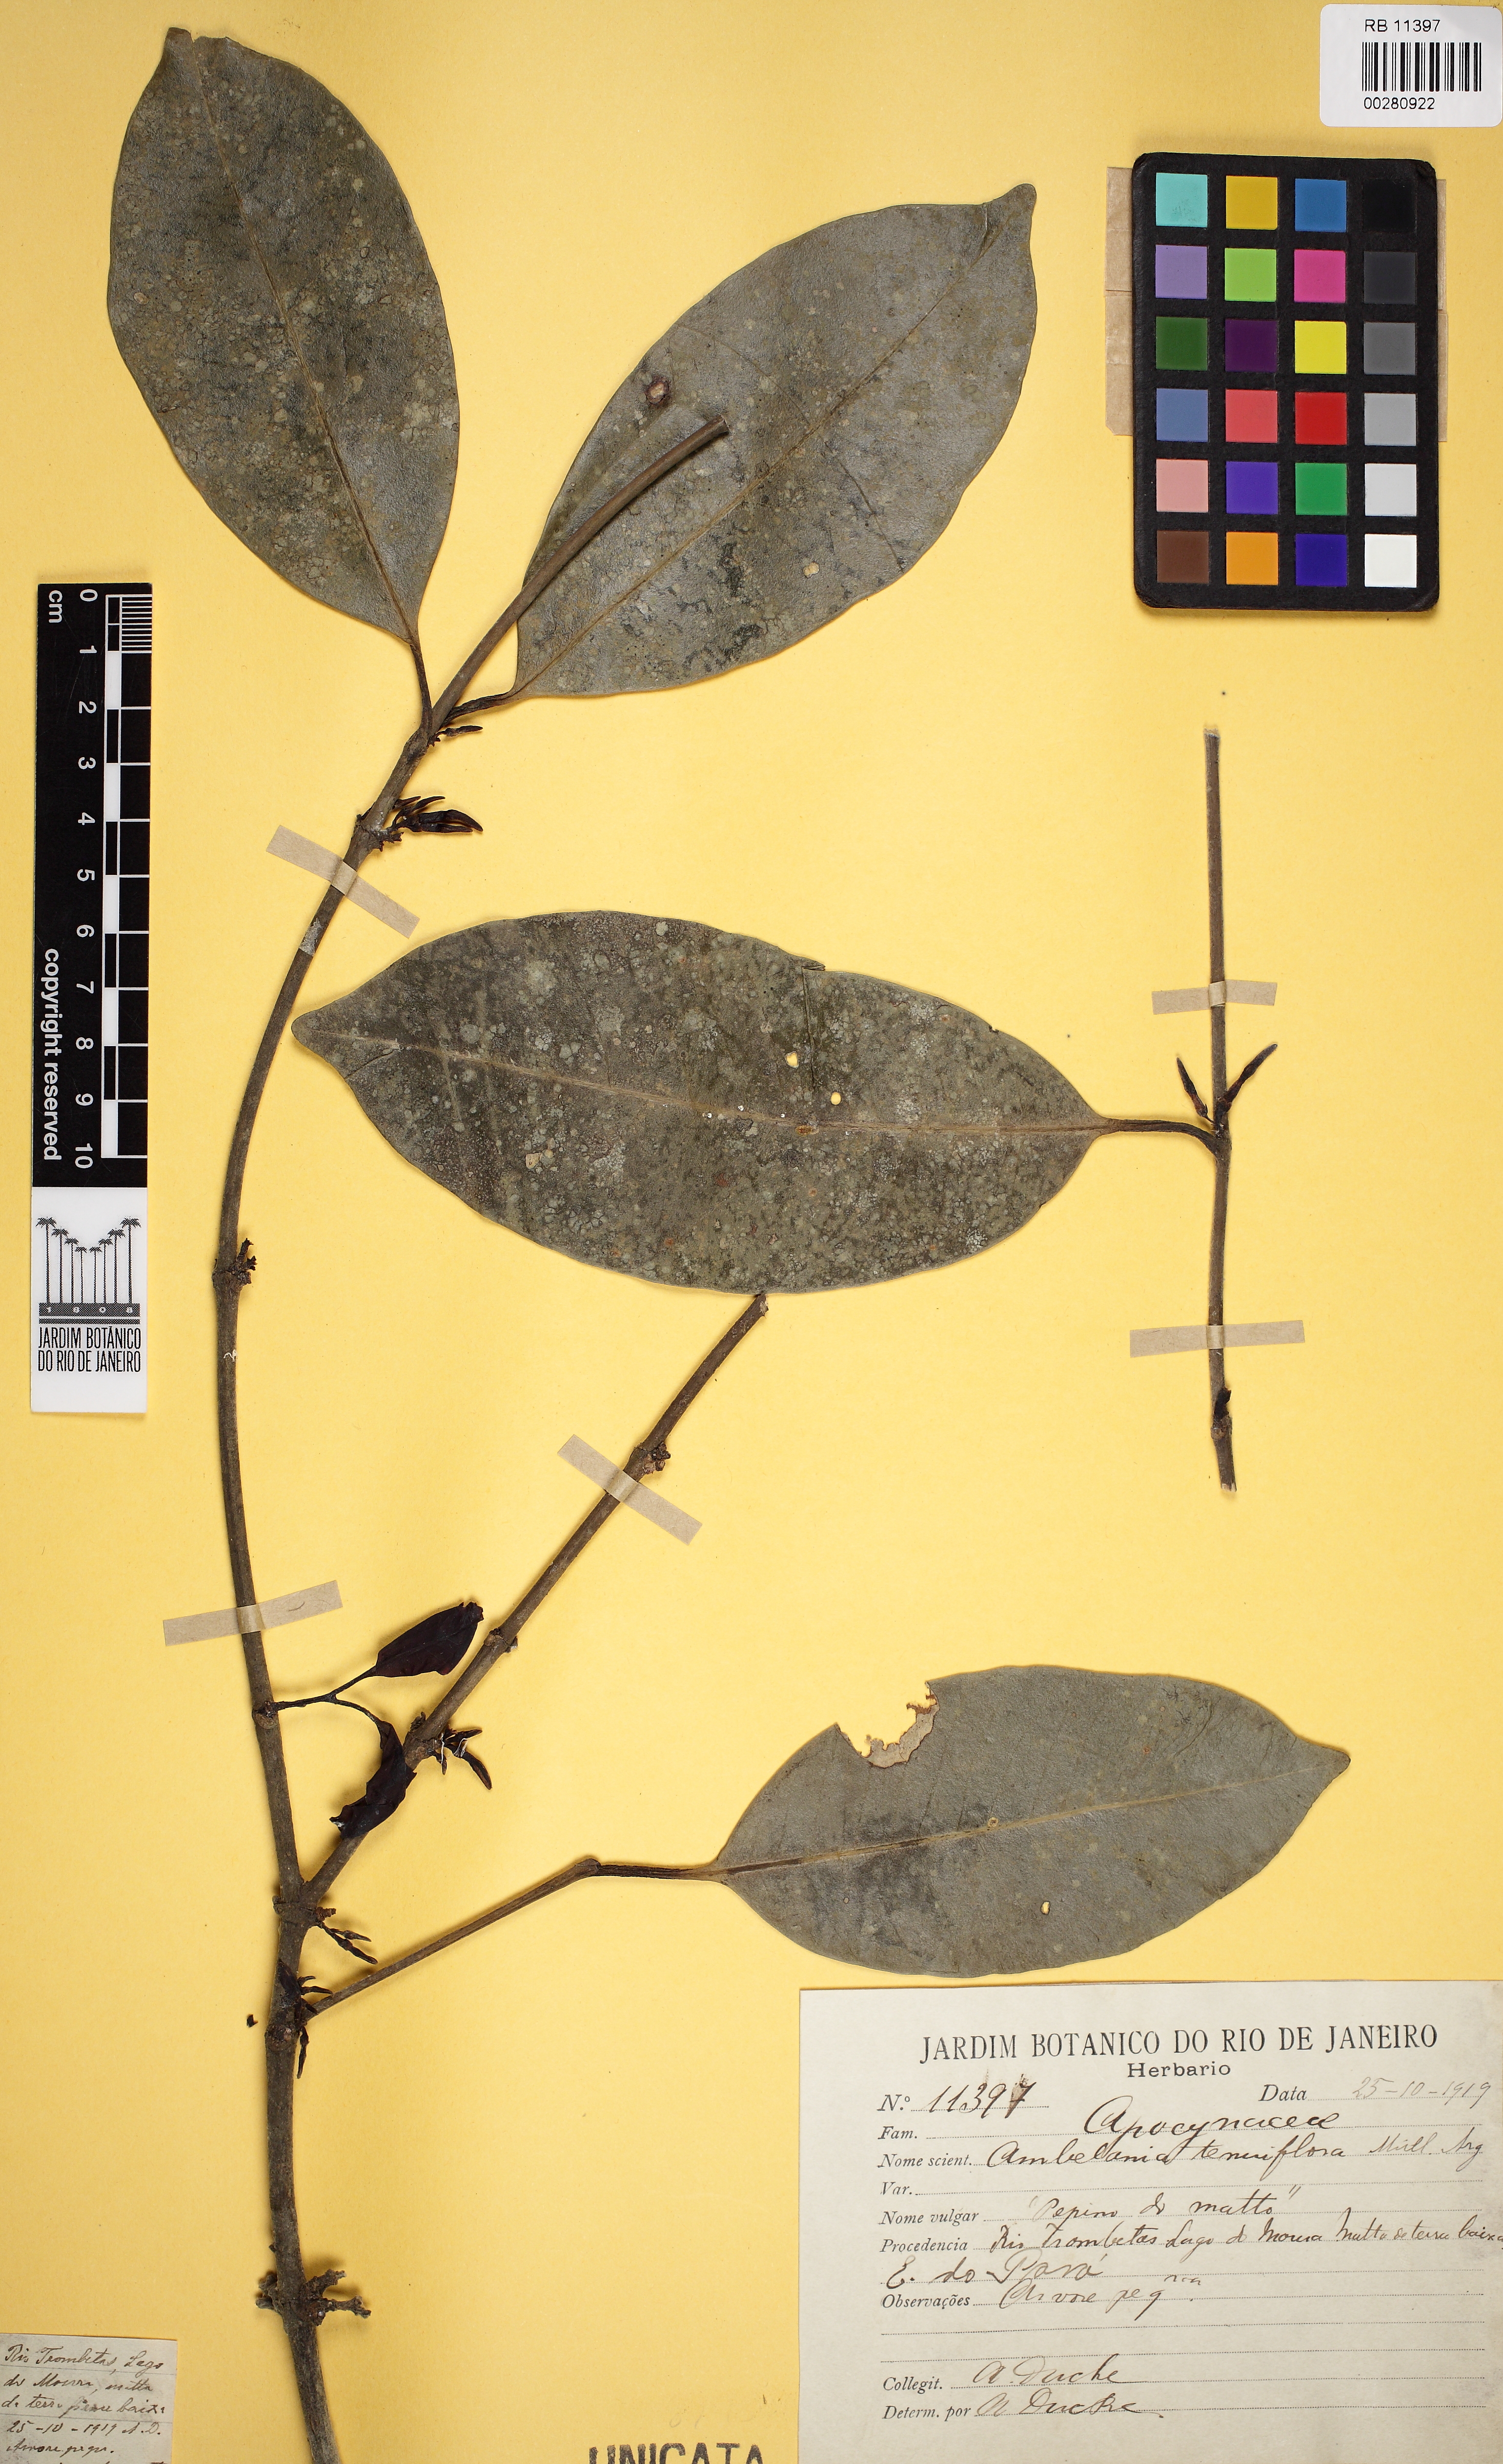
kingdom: Plantae
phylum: Tracheophyta
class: Magnoliopsida
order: Gentianales
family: Apocynaceae
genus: Ambelania
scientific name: Ambelania acida
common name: Bagasse
